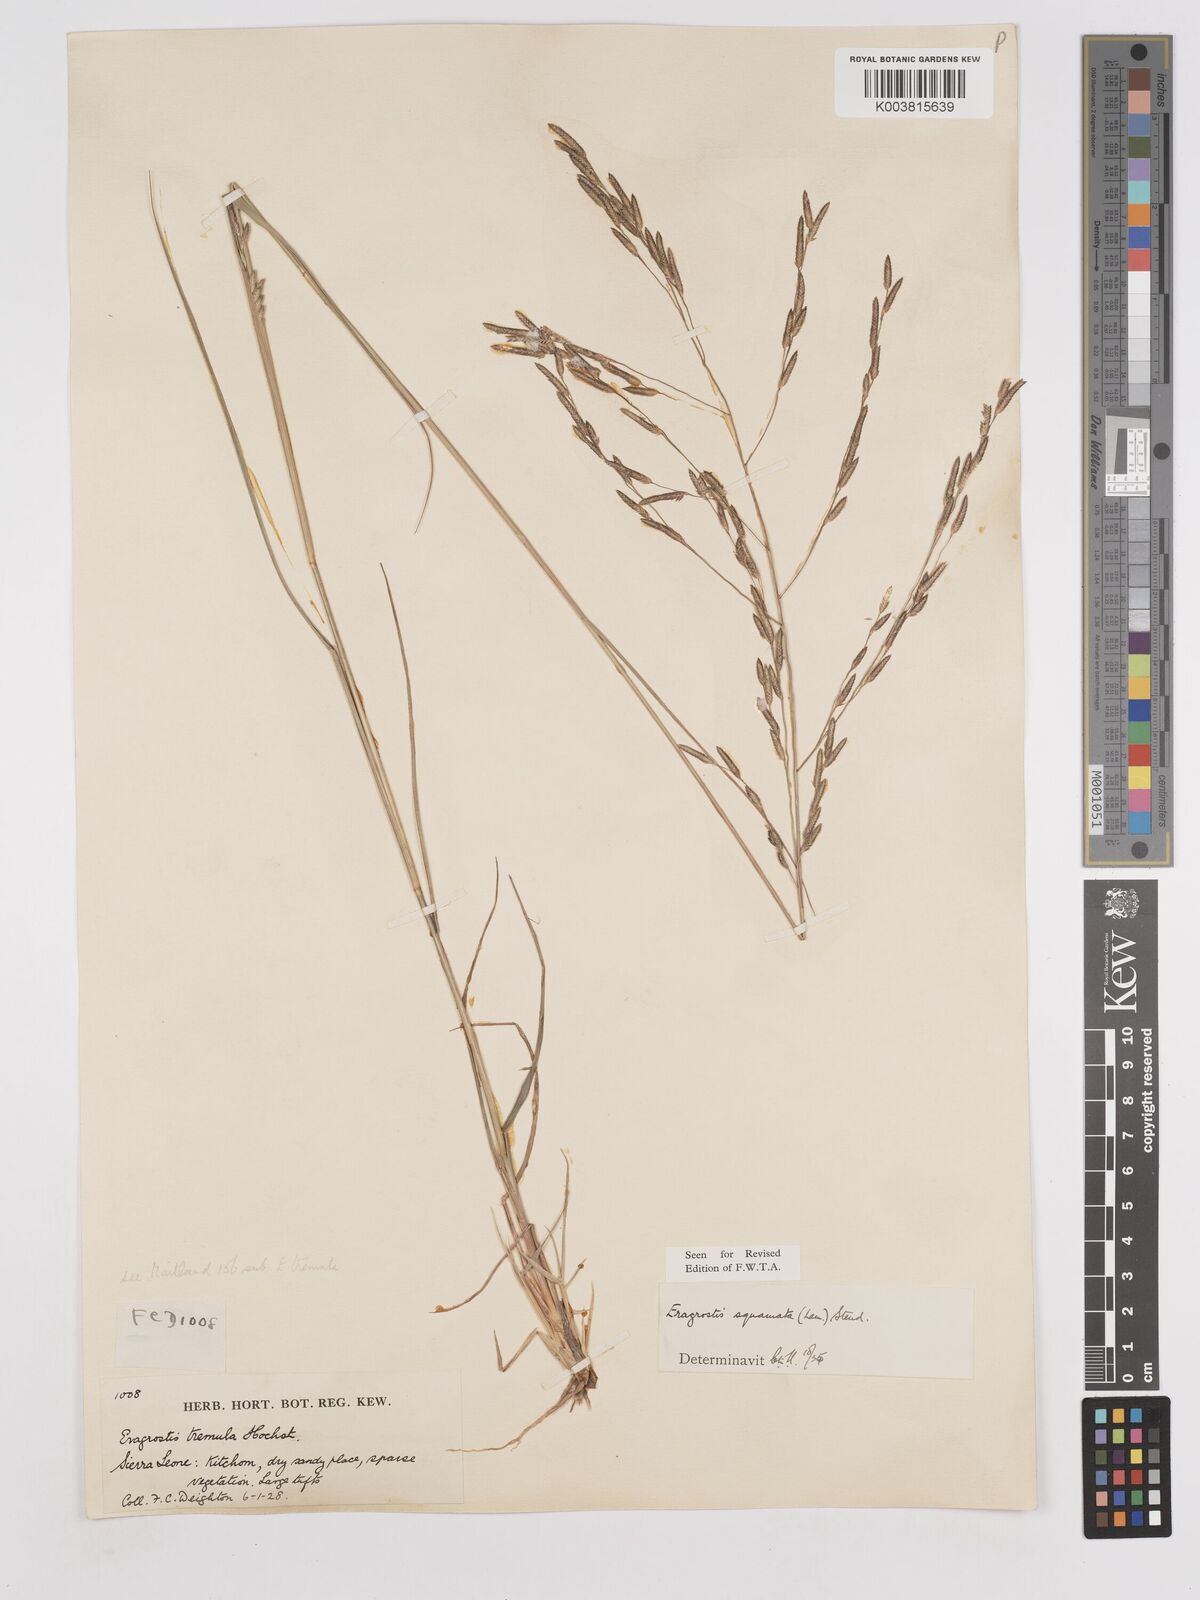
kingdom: Plantae
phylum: Tracheophyta
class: Liliopsida
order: Poales
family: Poaceae
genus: Eragrostis
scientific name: Eragrostis squamata
